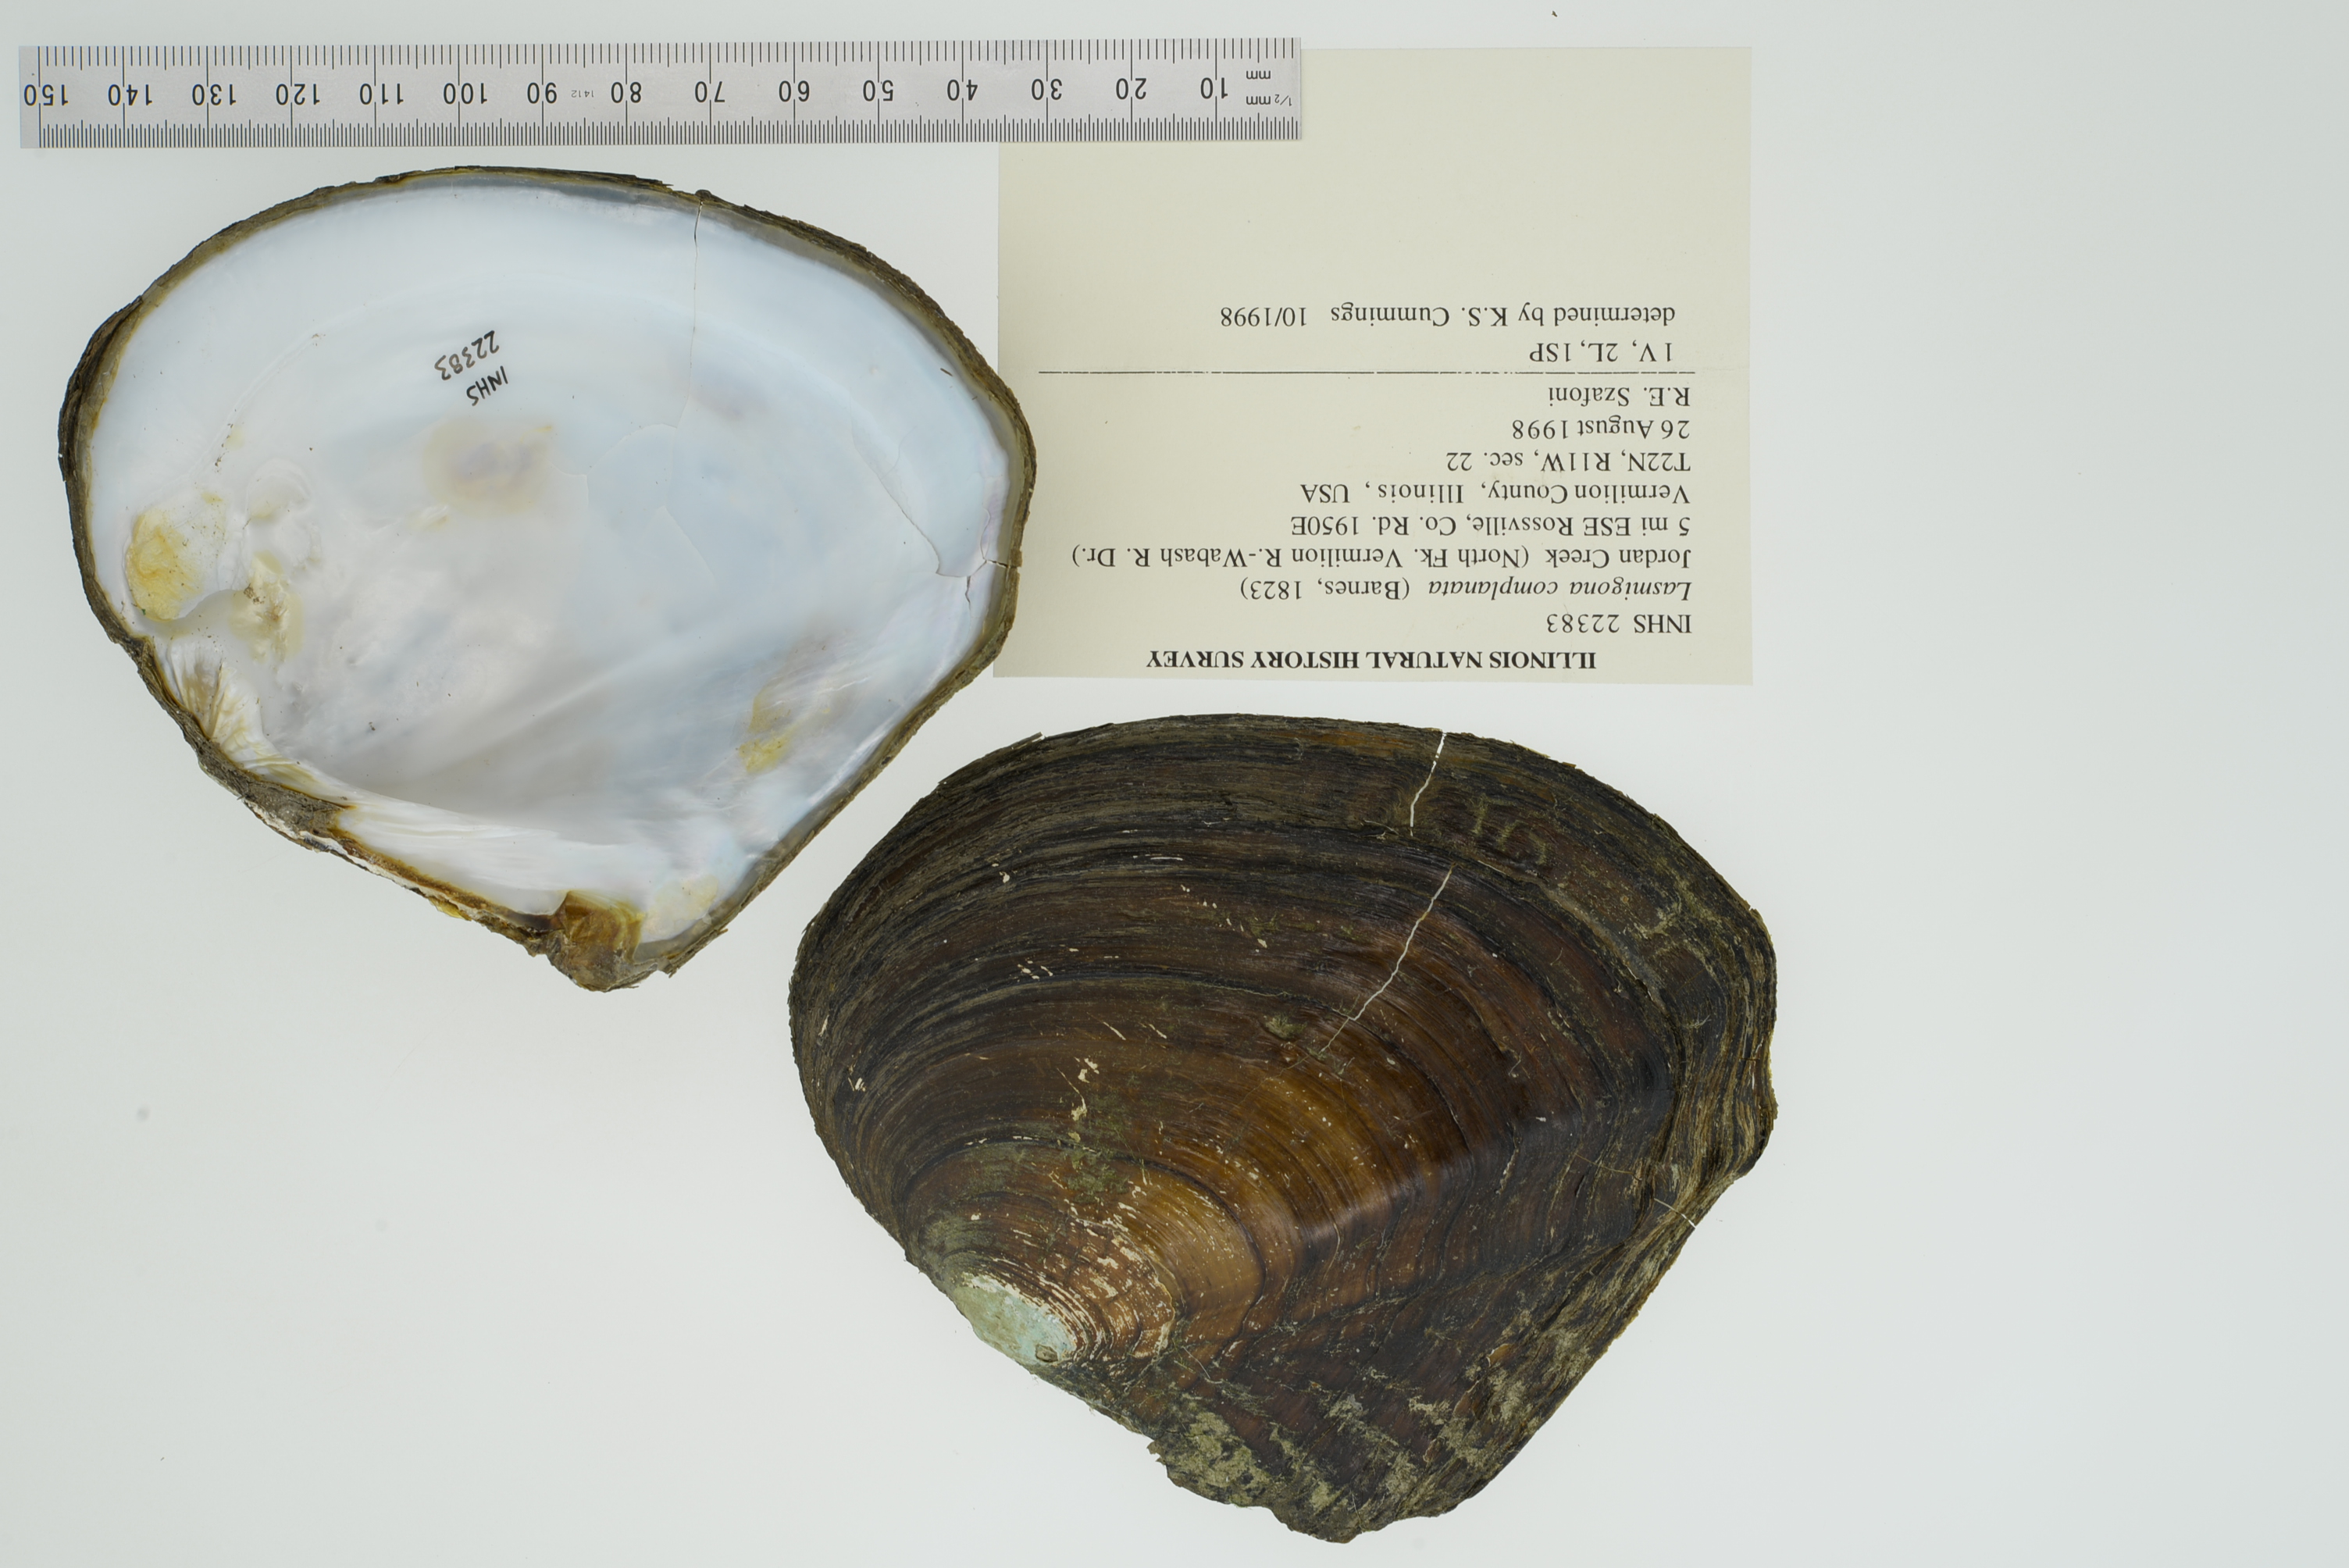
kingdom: Animalia
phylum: Mollusca
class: Bivalvia
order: Unionida
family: Unionidae
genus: Lasmigona
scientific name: Lasmigona complanata
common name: White heelsplitter
